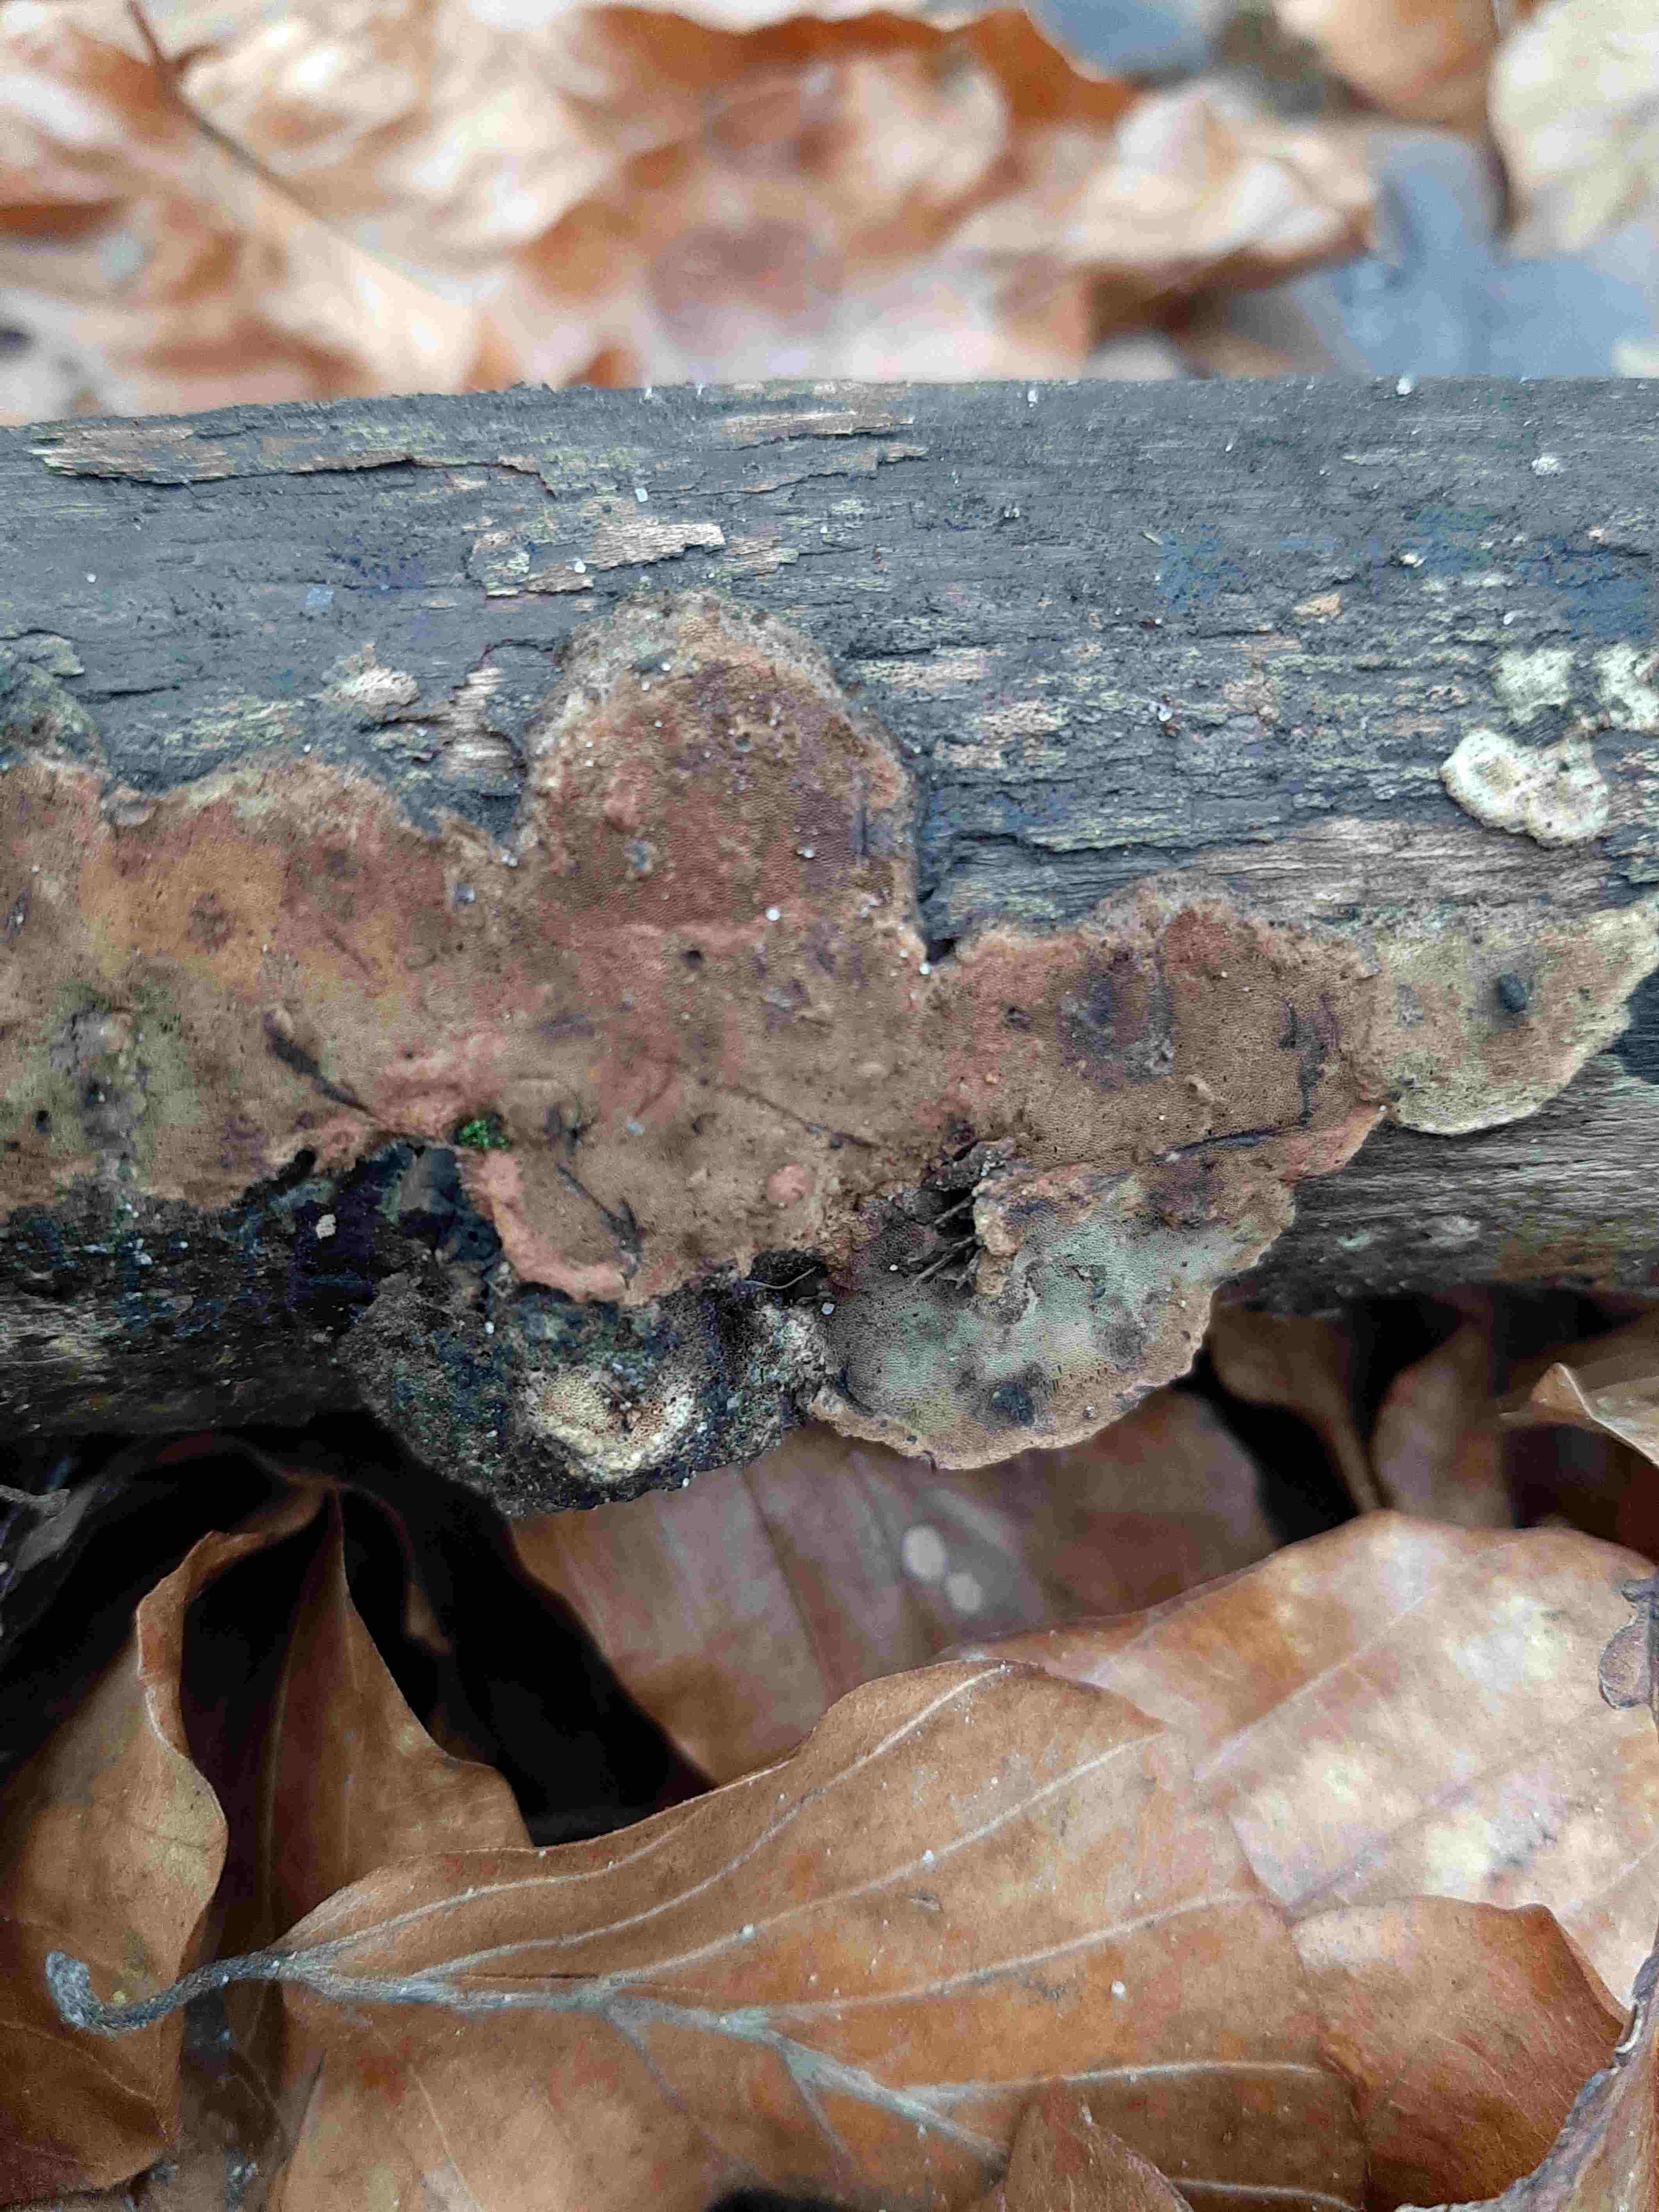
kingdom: Fungi
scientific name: Fungi
